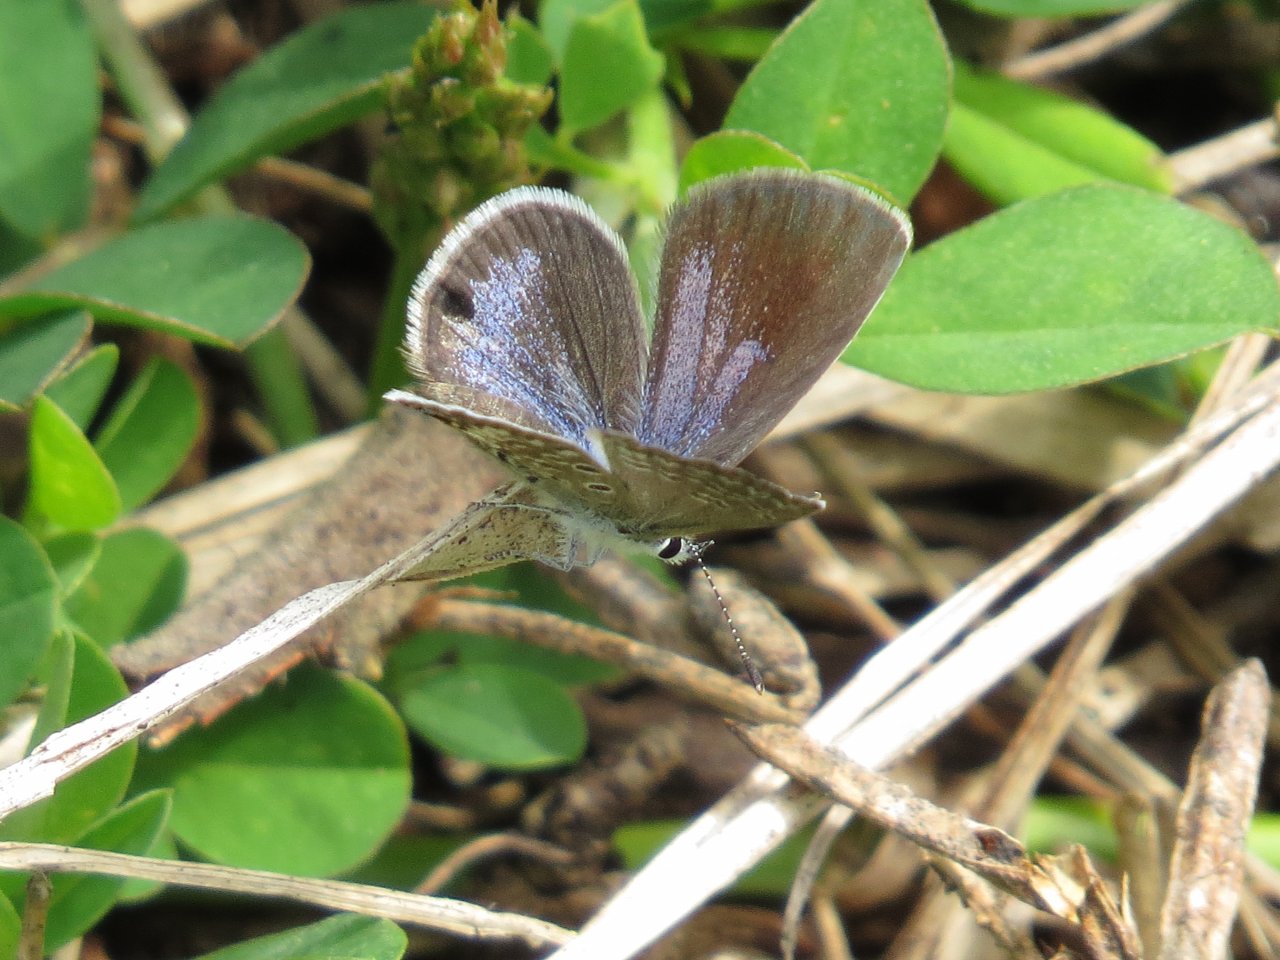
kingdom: Animalia
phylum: Arthropoda
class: Insecta
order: Lepidoptera
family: Lycaenidae
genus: Hemiargus
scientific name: Hemiargus ceraunus
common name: Ceraunus Blue
